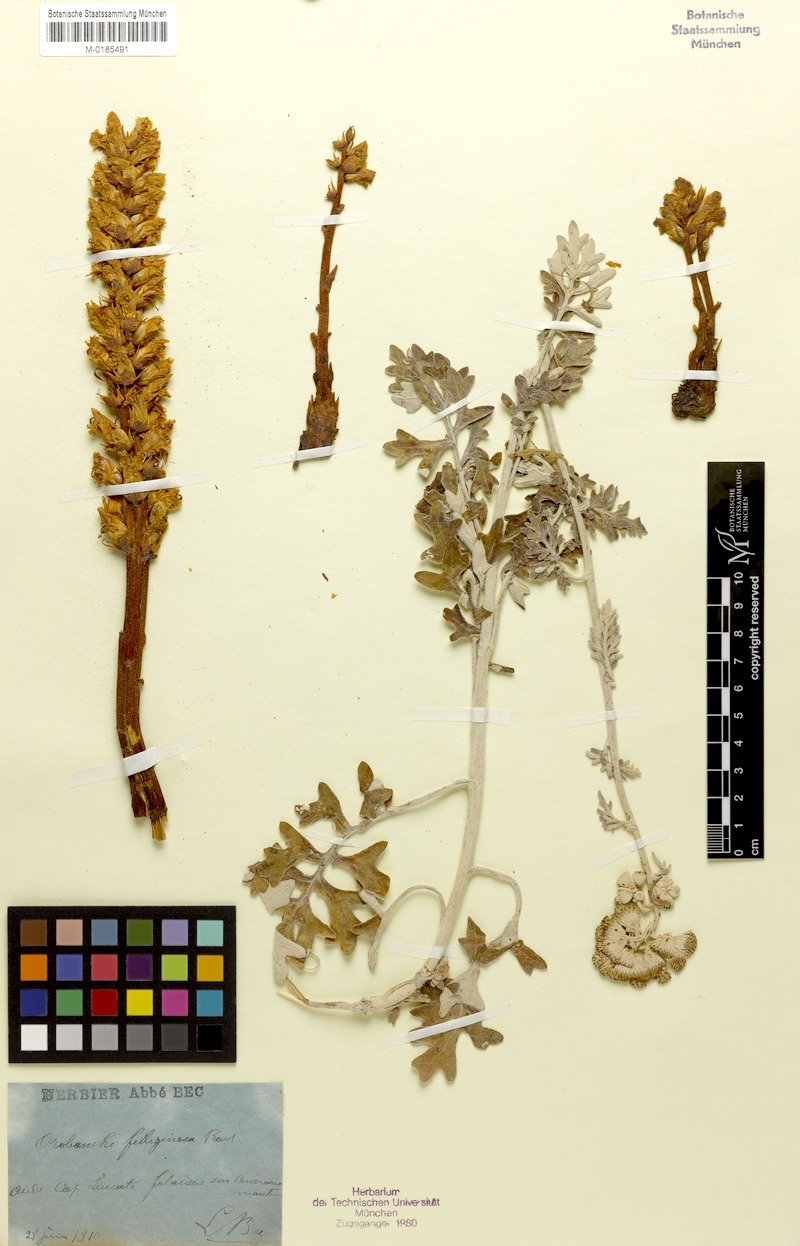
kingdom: Plantae
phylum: Tracheophyta
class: Magnoliopsida
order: Lamiales
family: Orobanchaceae
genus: Orobanche
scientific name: Orobanche litorea
